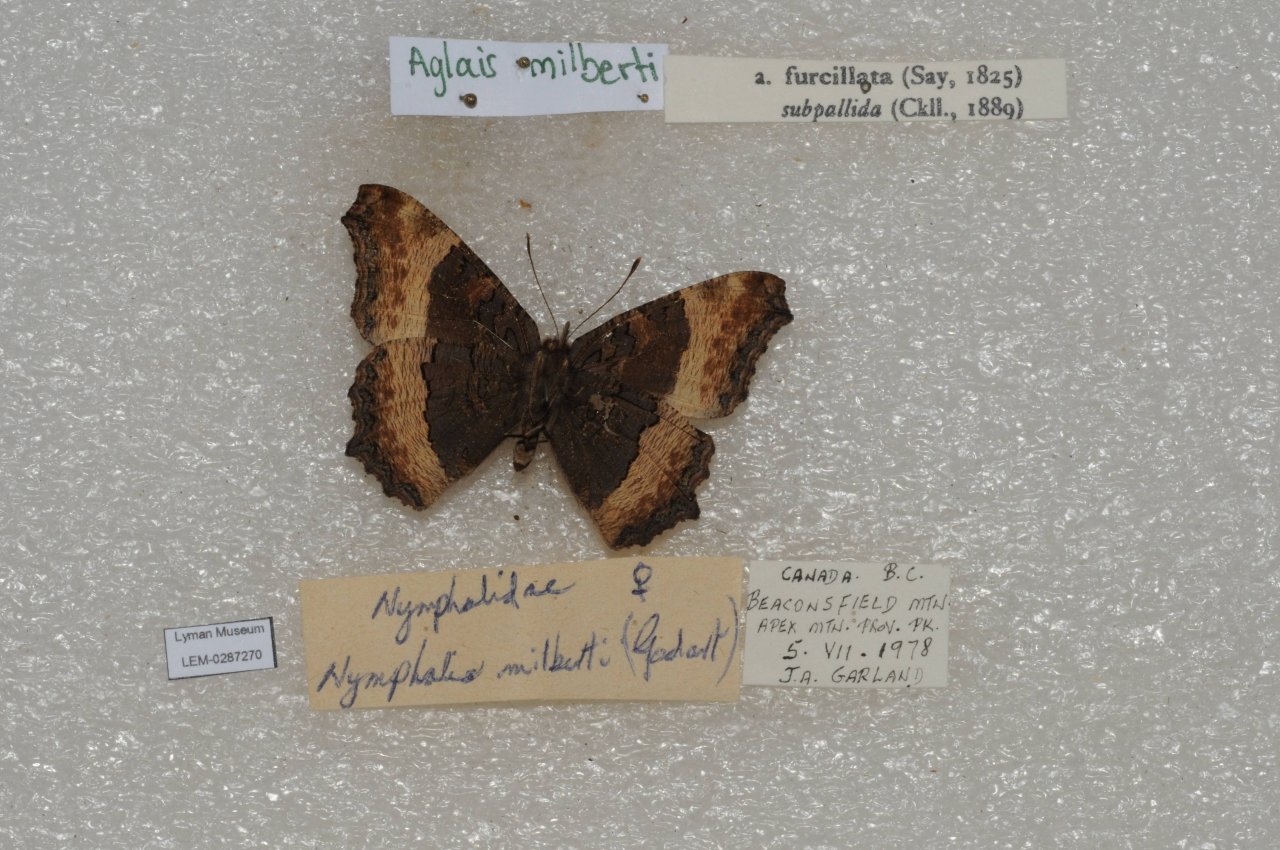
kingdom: Animalia
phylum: Arthropoda
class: Insecta
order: Lepidoptera
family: Nymphalidae
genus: Aglais
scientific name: Aglais milberti
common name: Milbert's Tortoiseshell
